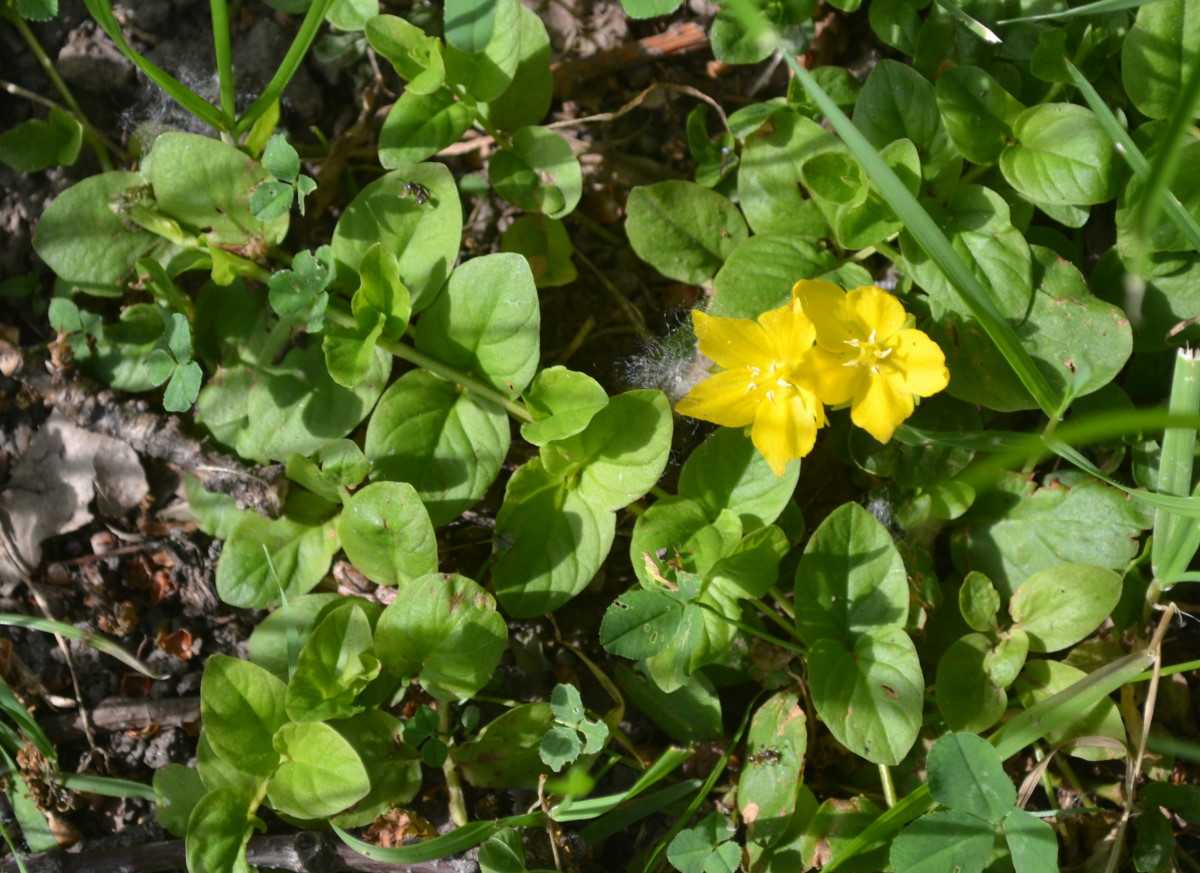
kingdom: Plantae
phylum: Tracheophyta
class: Magnoliopsida
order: Ericales
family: Primulaceae
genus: Lysimachia
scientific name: Lysimachia nummularia
